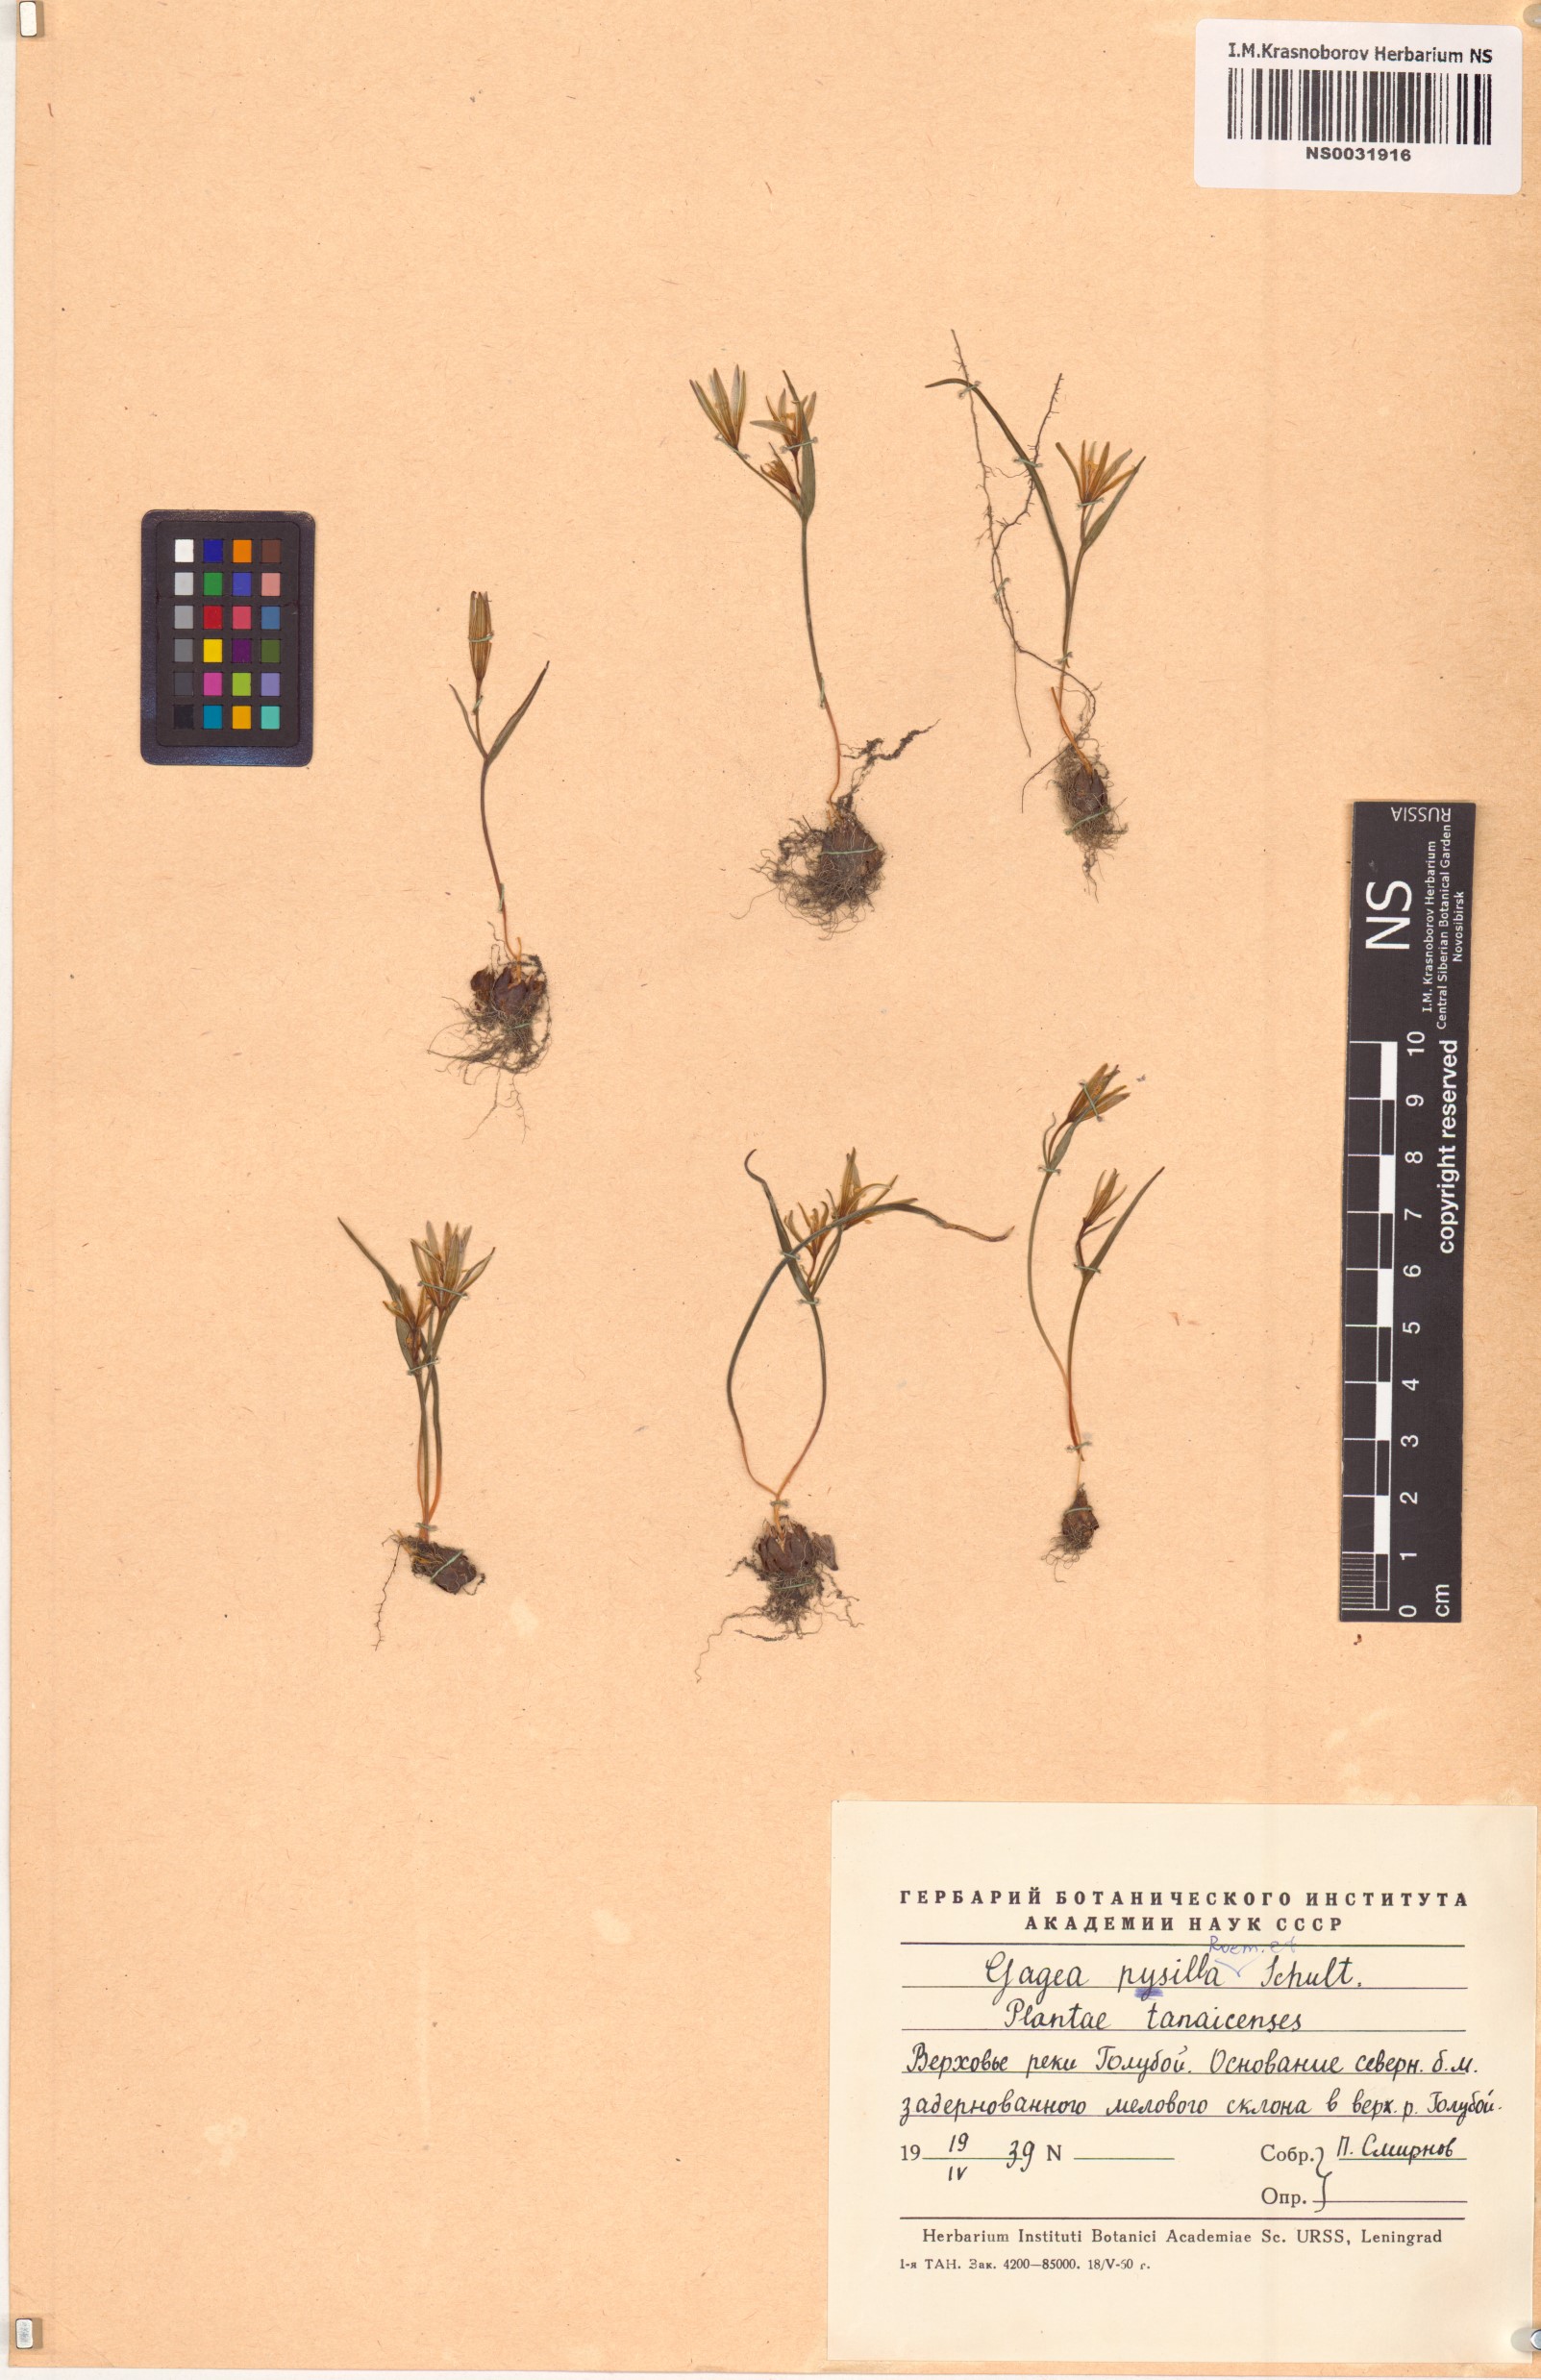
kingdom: Plantae
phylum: Tracheophyta
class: Liliopsida
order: Liliales
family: Liliaceae
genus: Gagea
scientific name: Gagea pusilla
